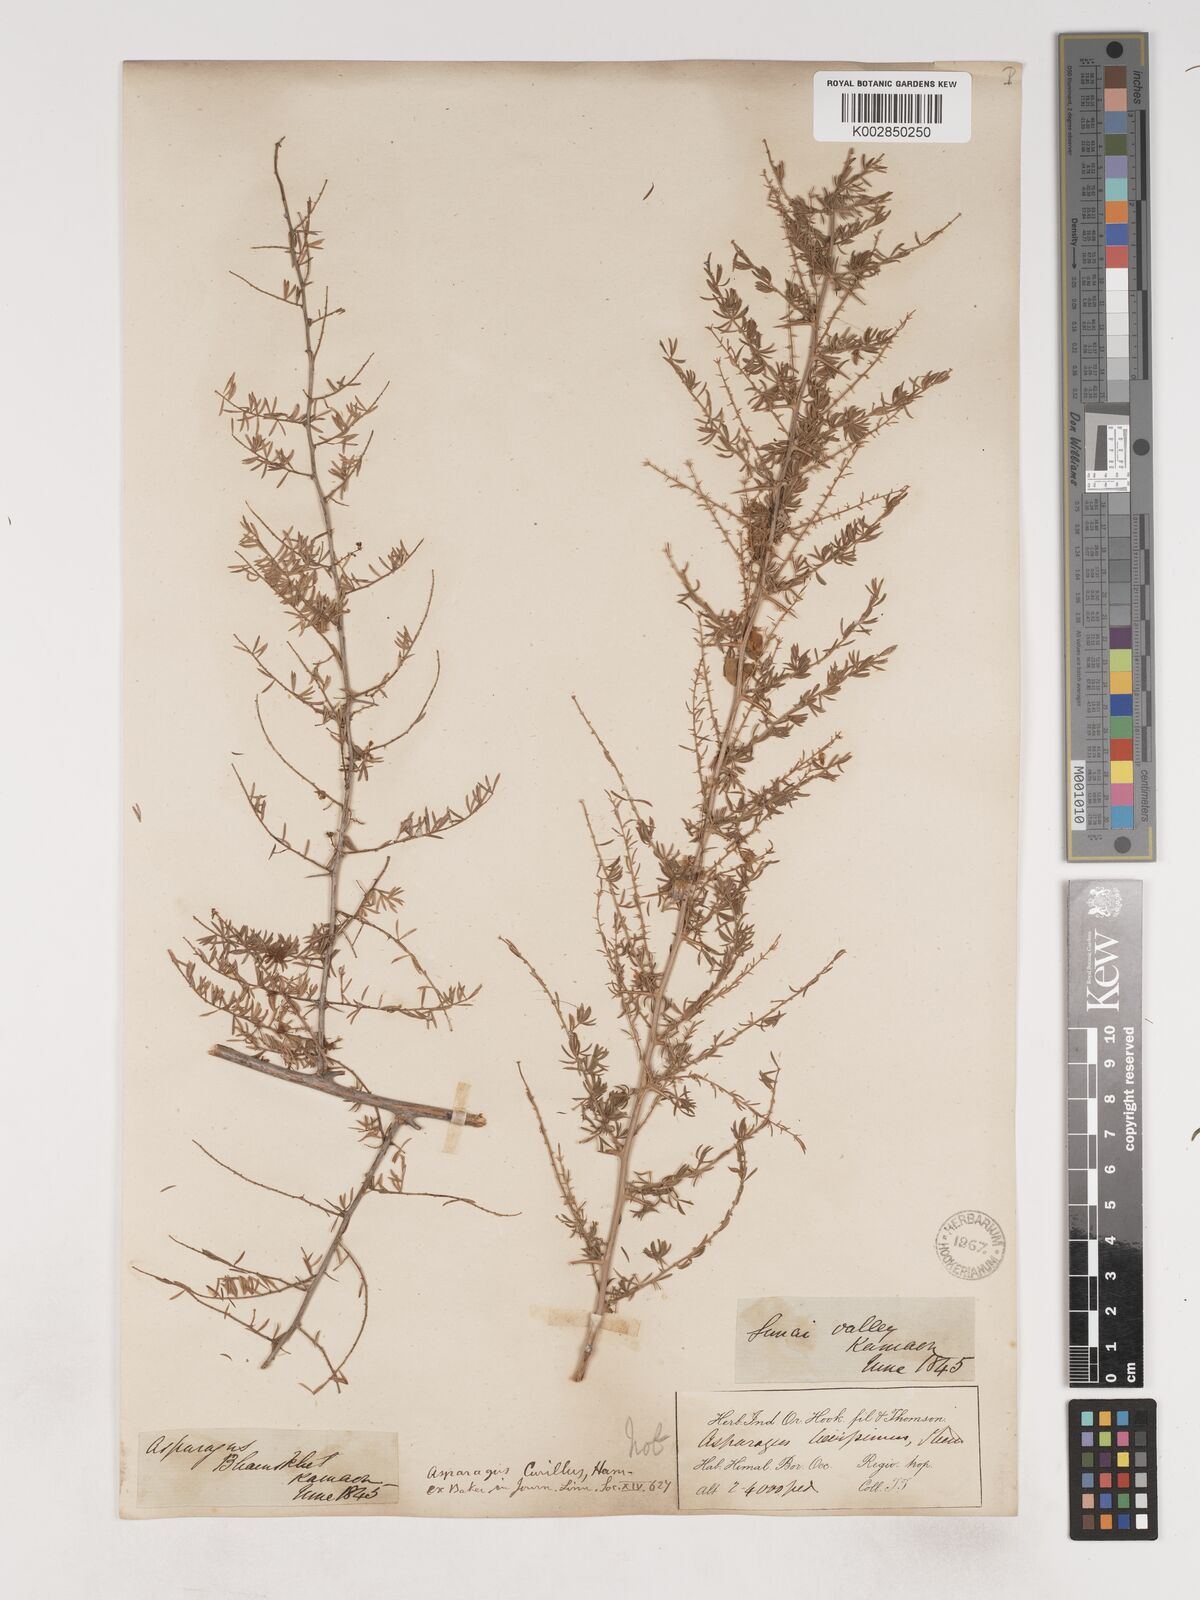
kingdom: Plantae
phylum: Tracheophyta
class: Liliopsida
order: Asparagales
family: Asparagaceae
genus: Asparagus
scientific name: Asparagus curillus
